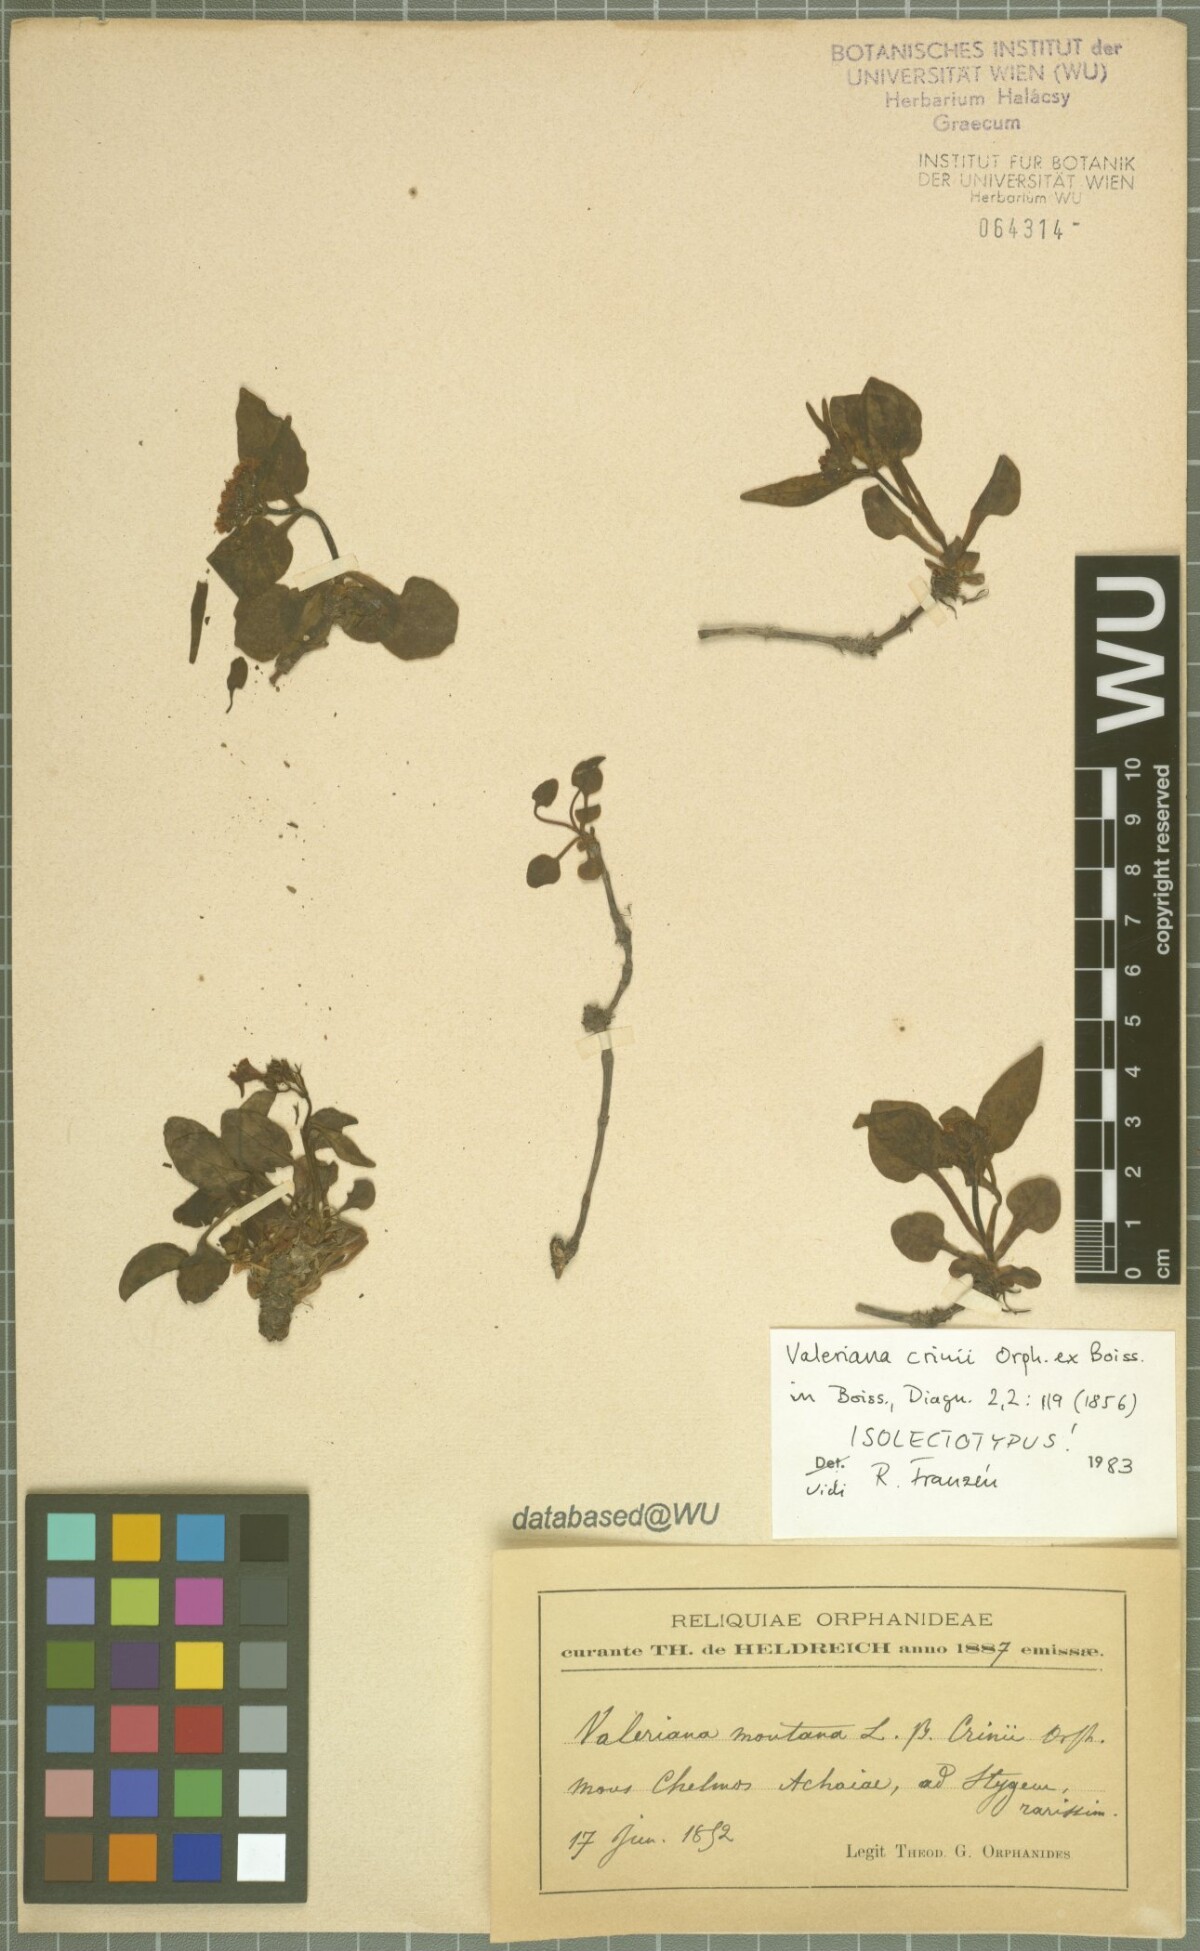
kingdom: Plantae
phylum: Tracheophyta
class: Magnoliopsida
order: Dipsacales
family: Caprifoliaceae
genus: Valeriana
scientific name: Valeriana crinii
